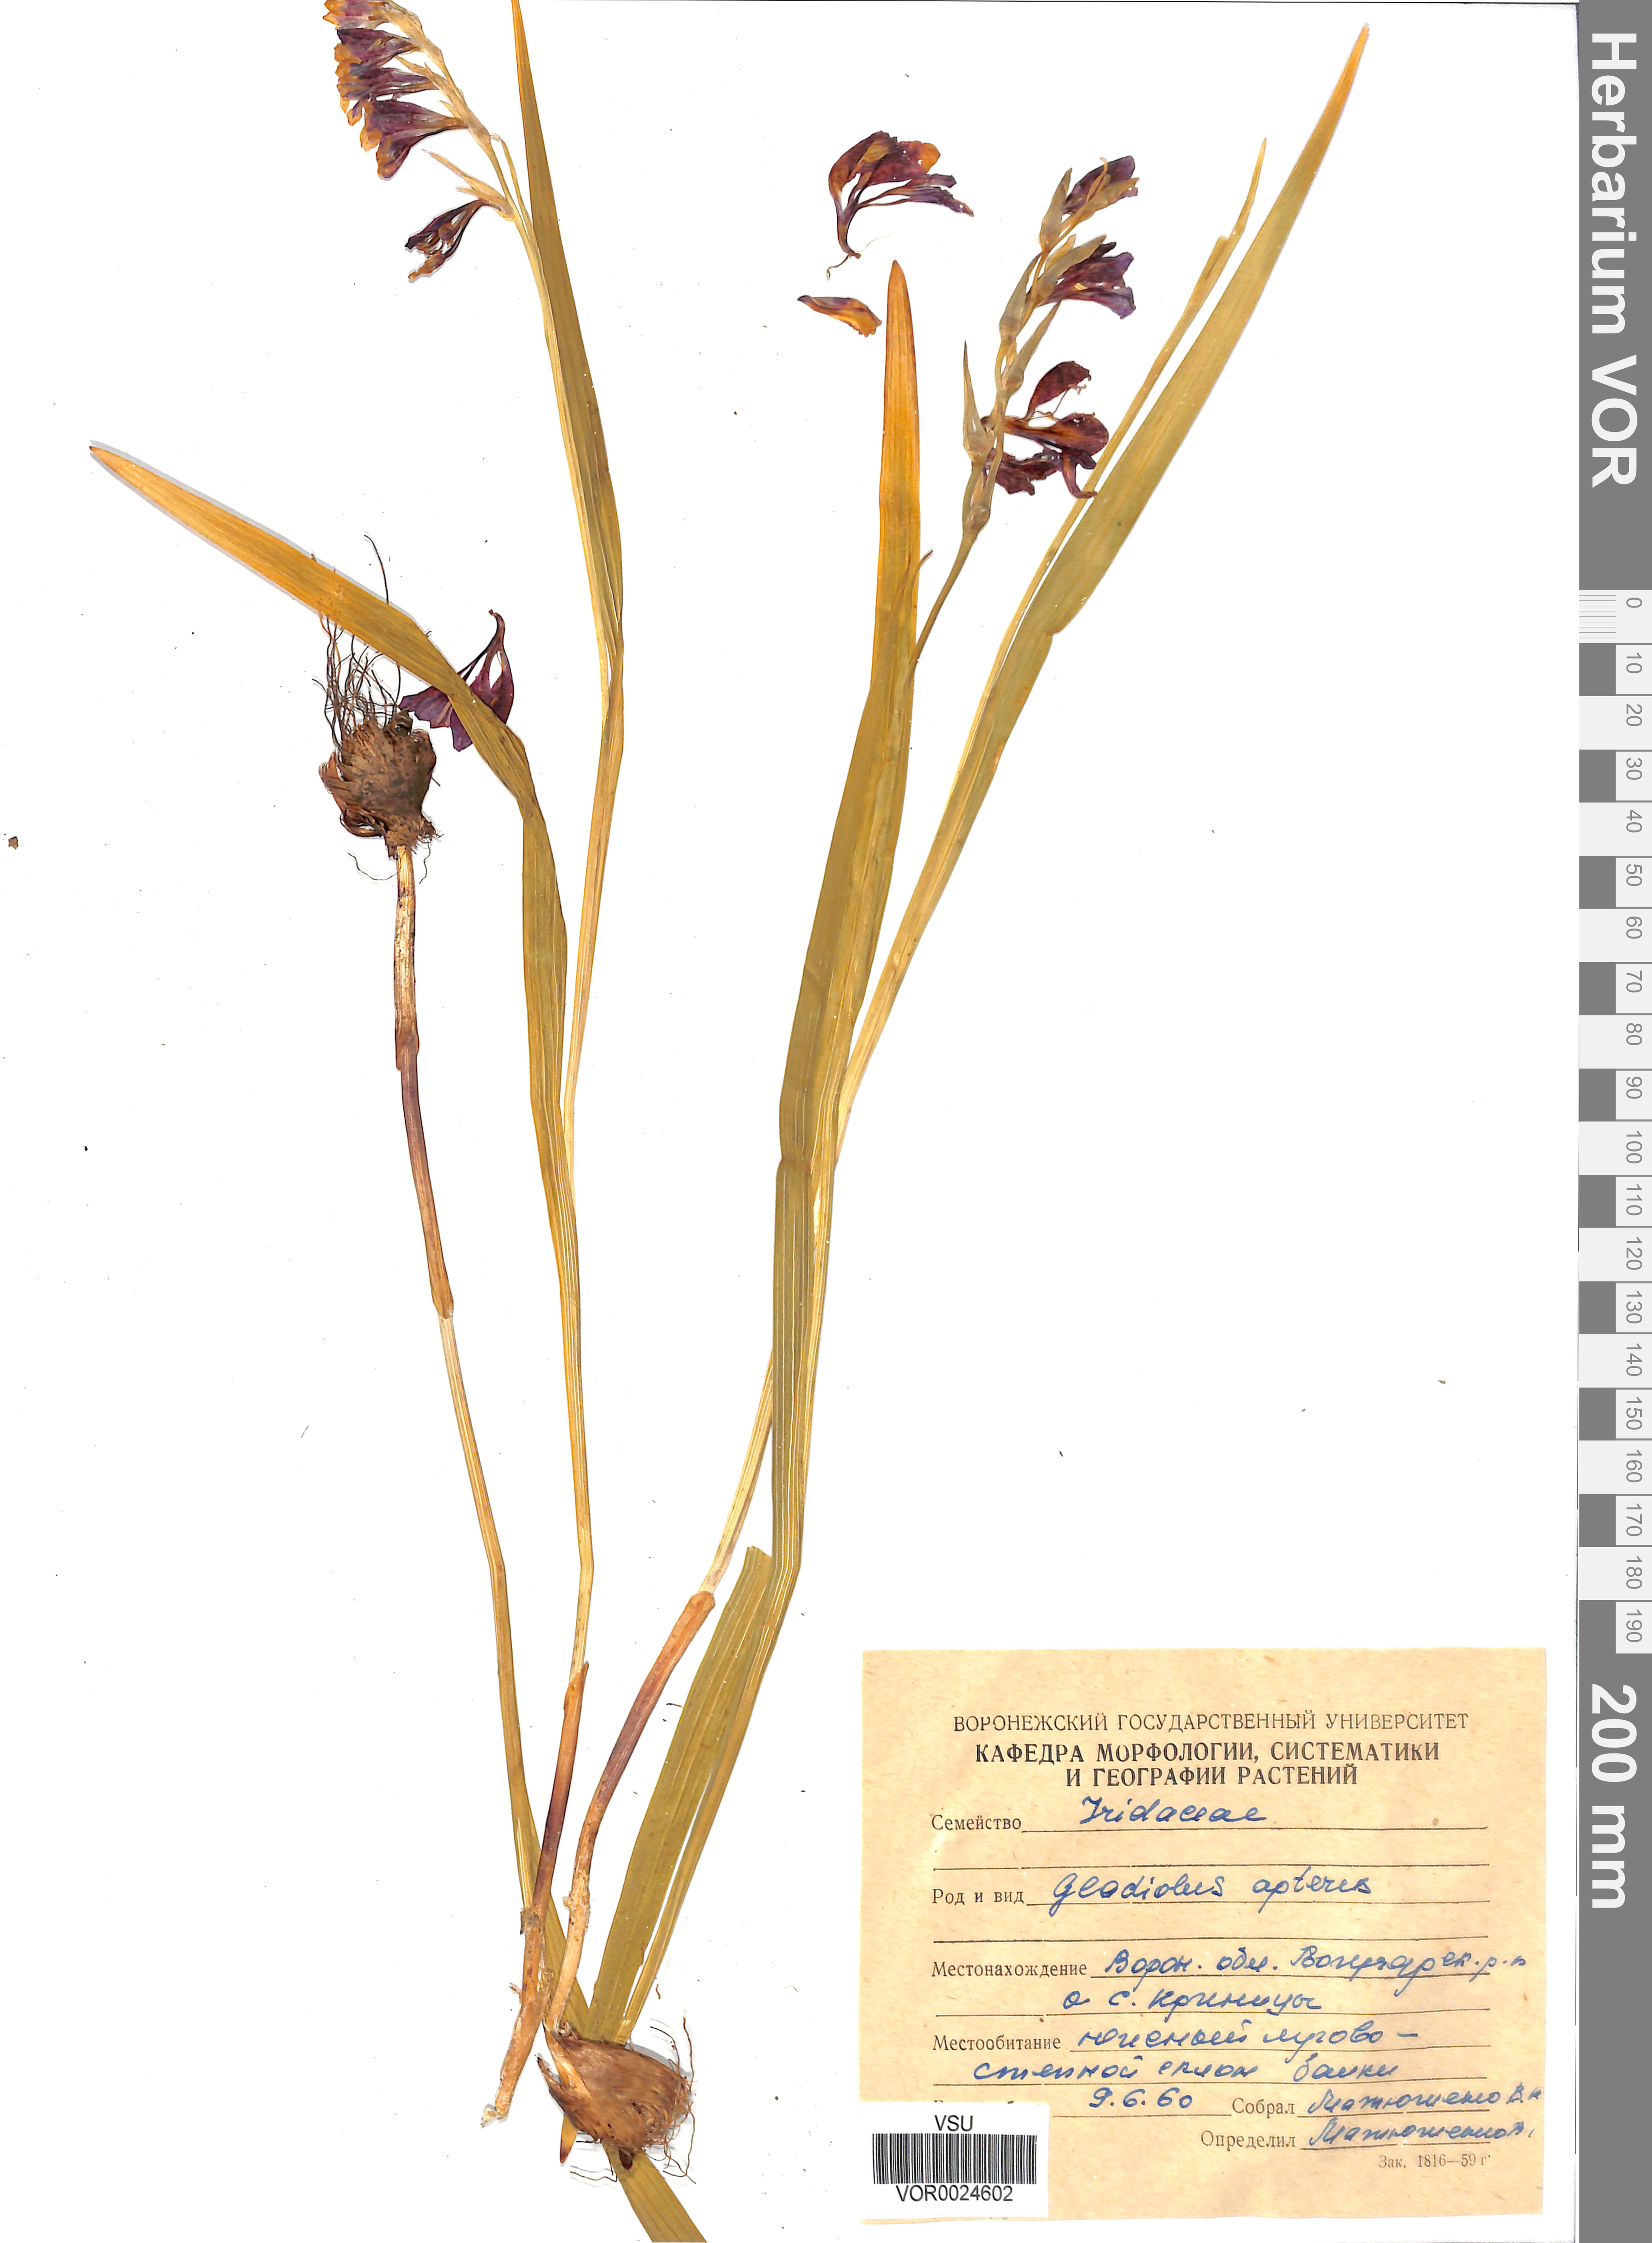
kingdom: Plantae
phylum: Tracheophyta
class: Liliopsida
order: Asparagales
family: Iridaceae
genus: Gladiolus
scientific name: Gladiolus tenuis
